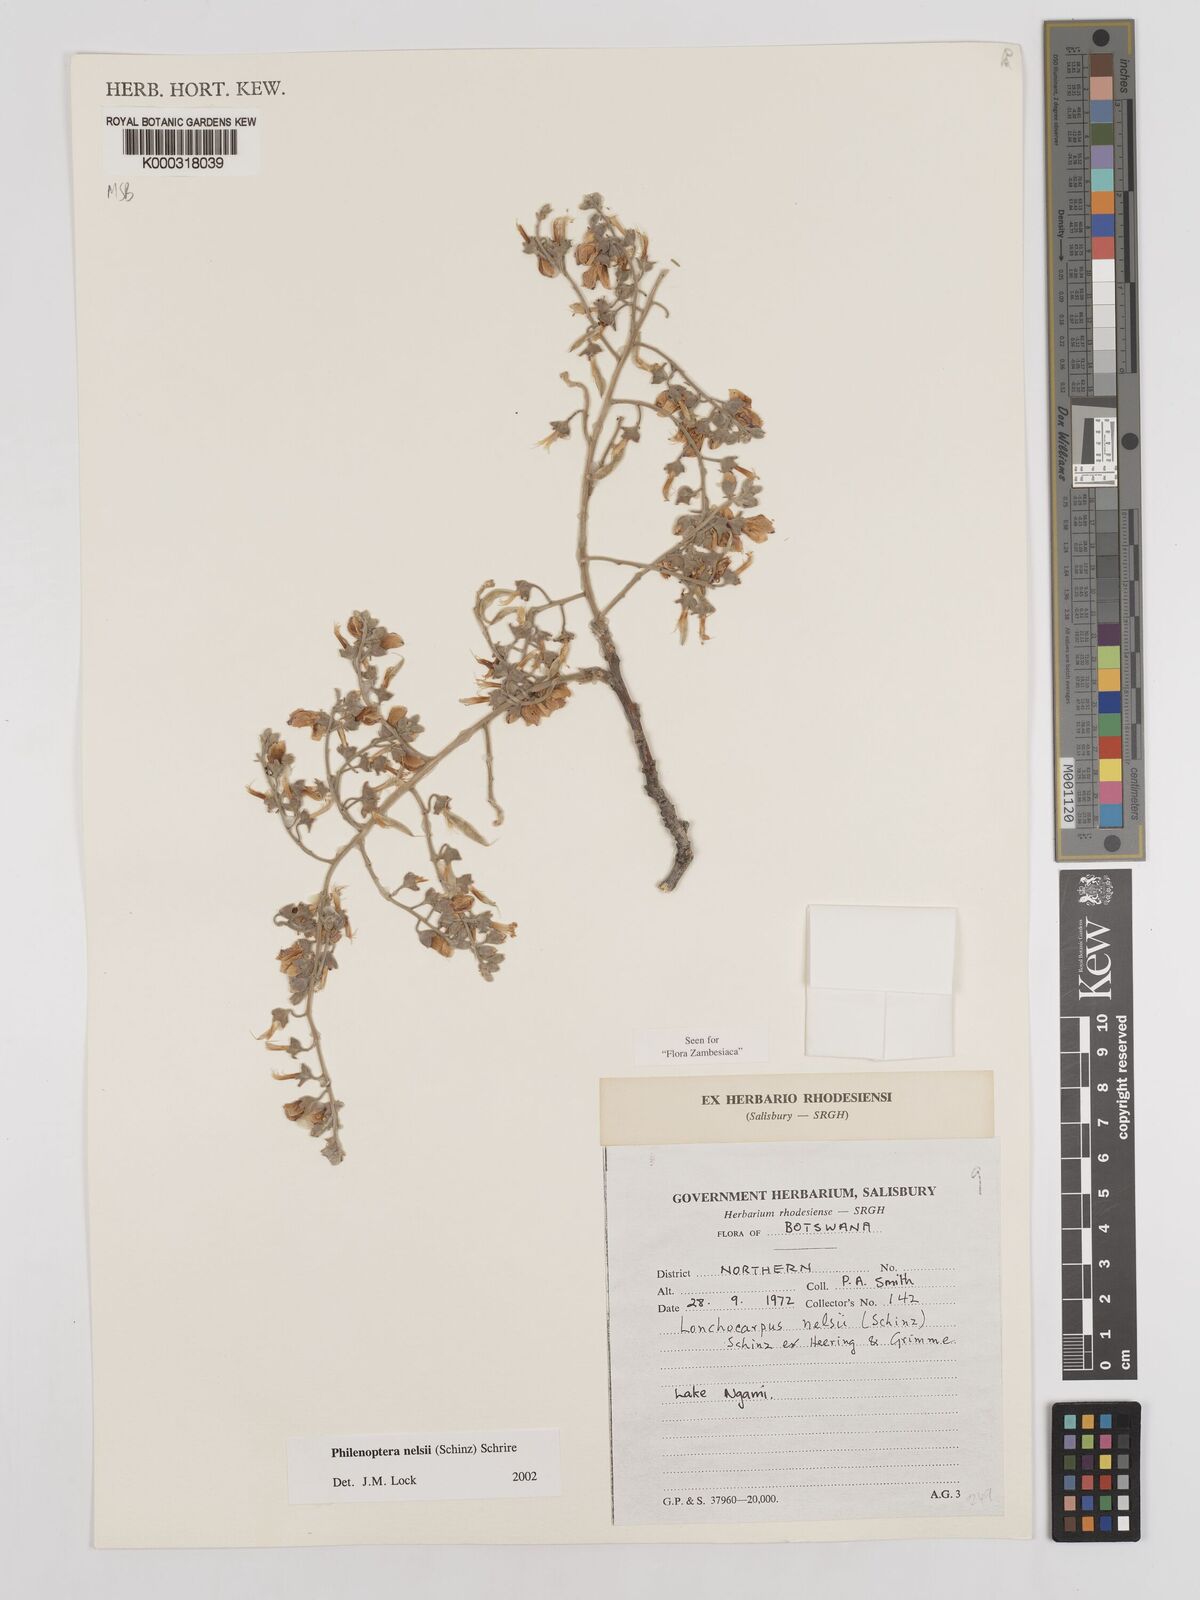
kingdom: Plantae
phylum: Tracheophyta
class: Magnoliopsida
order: Fabales
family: Fabaceae
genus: Philenoptera
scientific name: Philenoptera nelsii
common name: Kalahari apple-leaf
